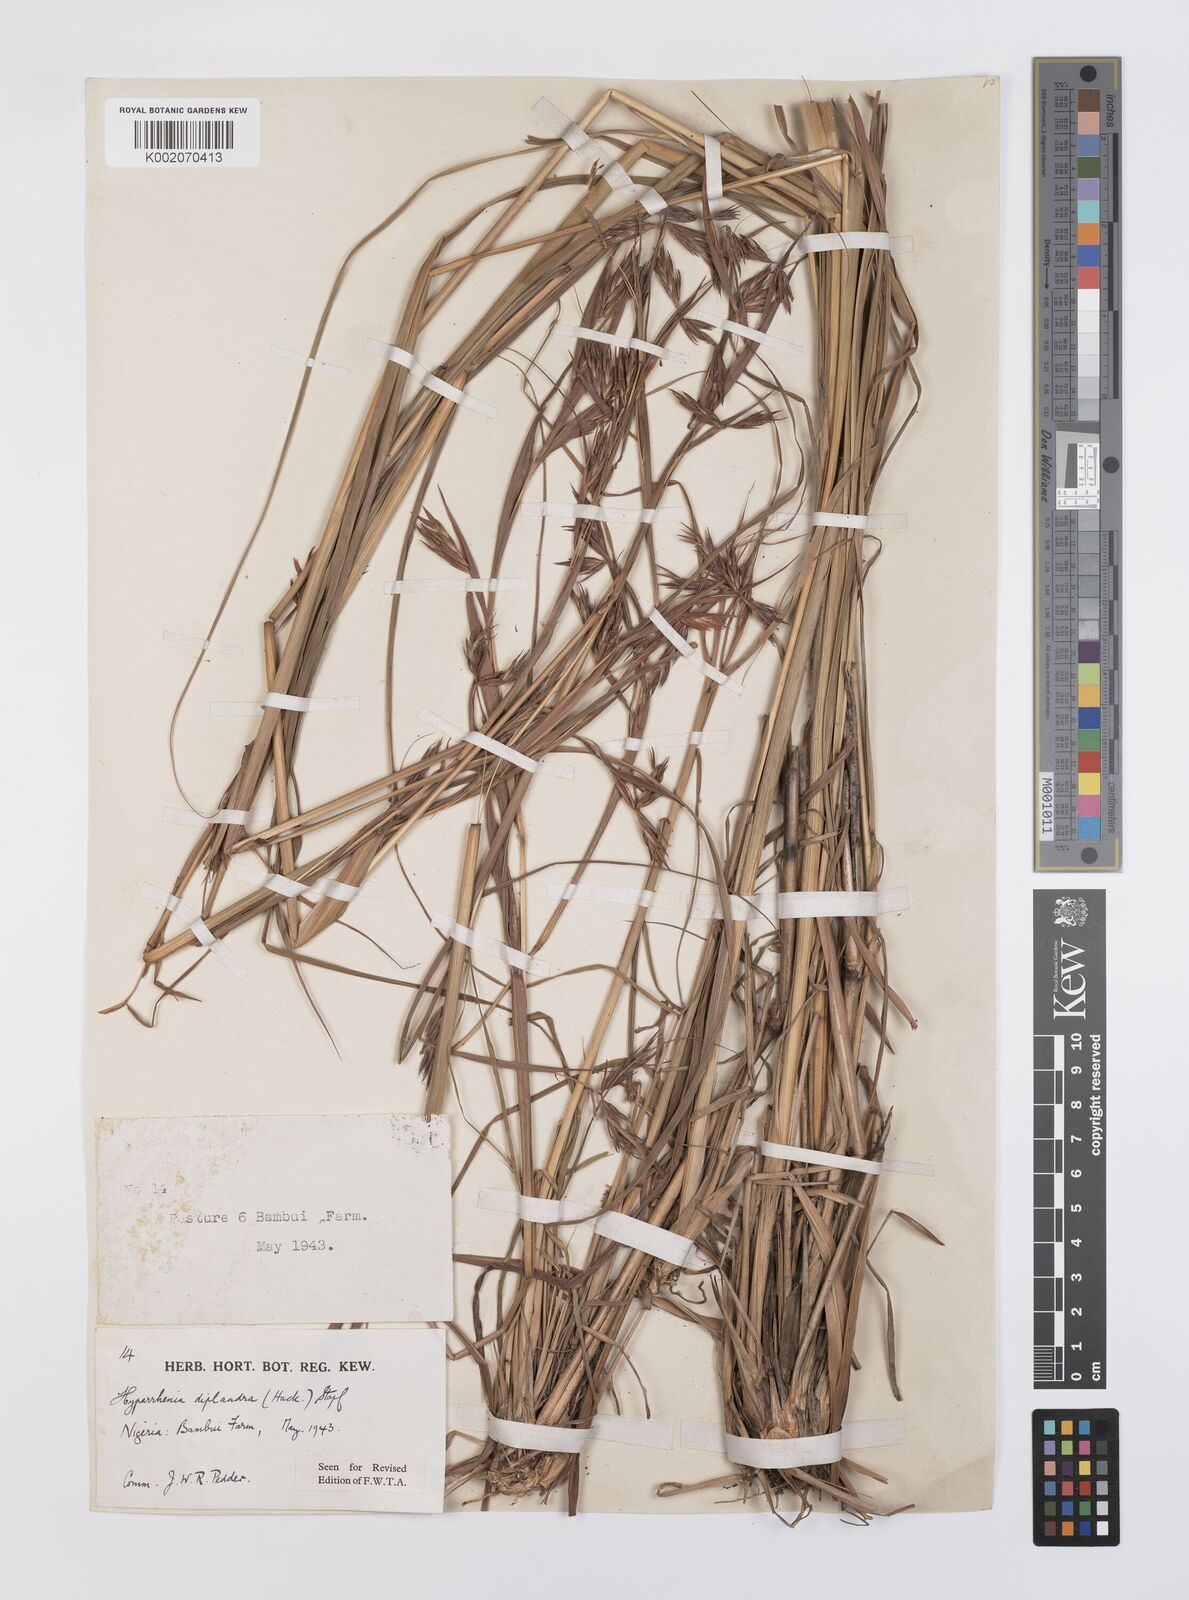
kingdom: Plantae
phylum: Tracheophyta
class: Liliopsida
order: Poales
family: Poaceae
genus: Hyparrhenia
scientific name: Hyparrhenia diplandra
